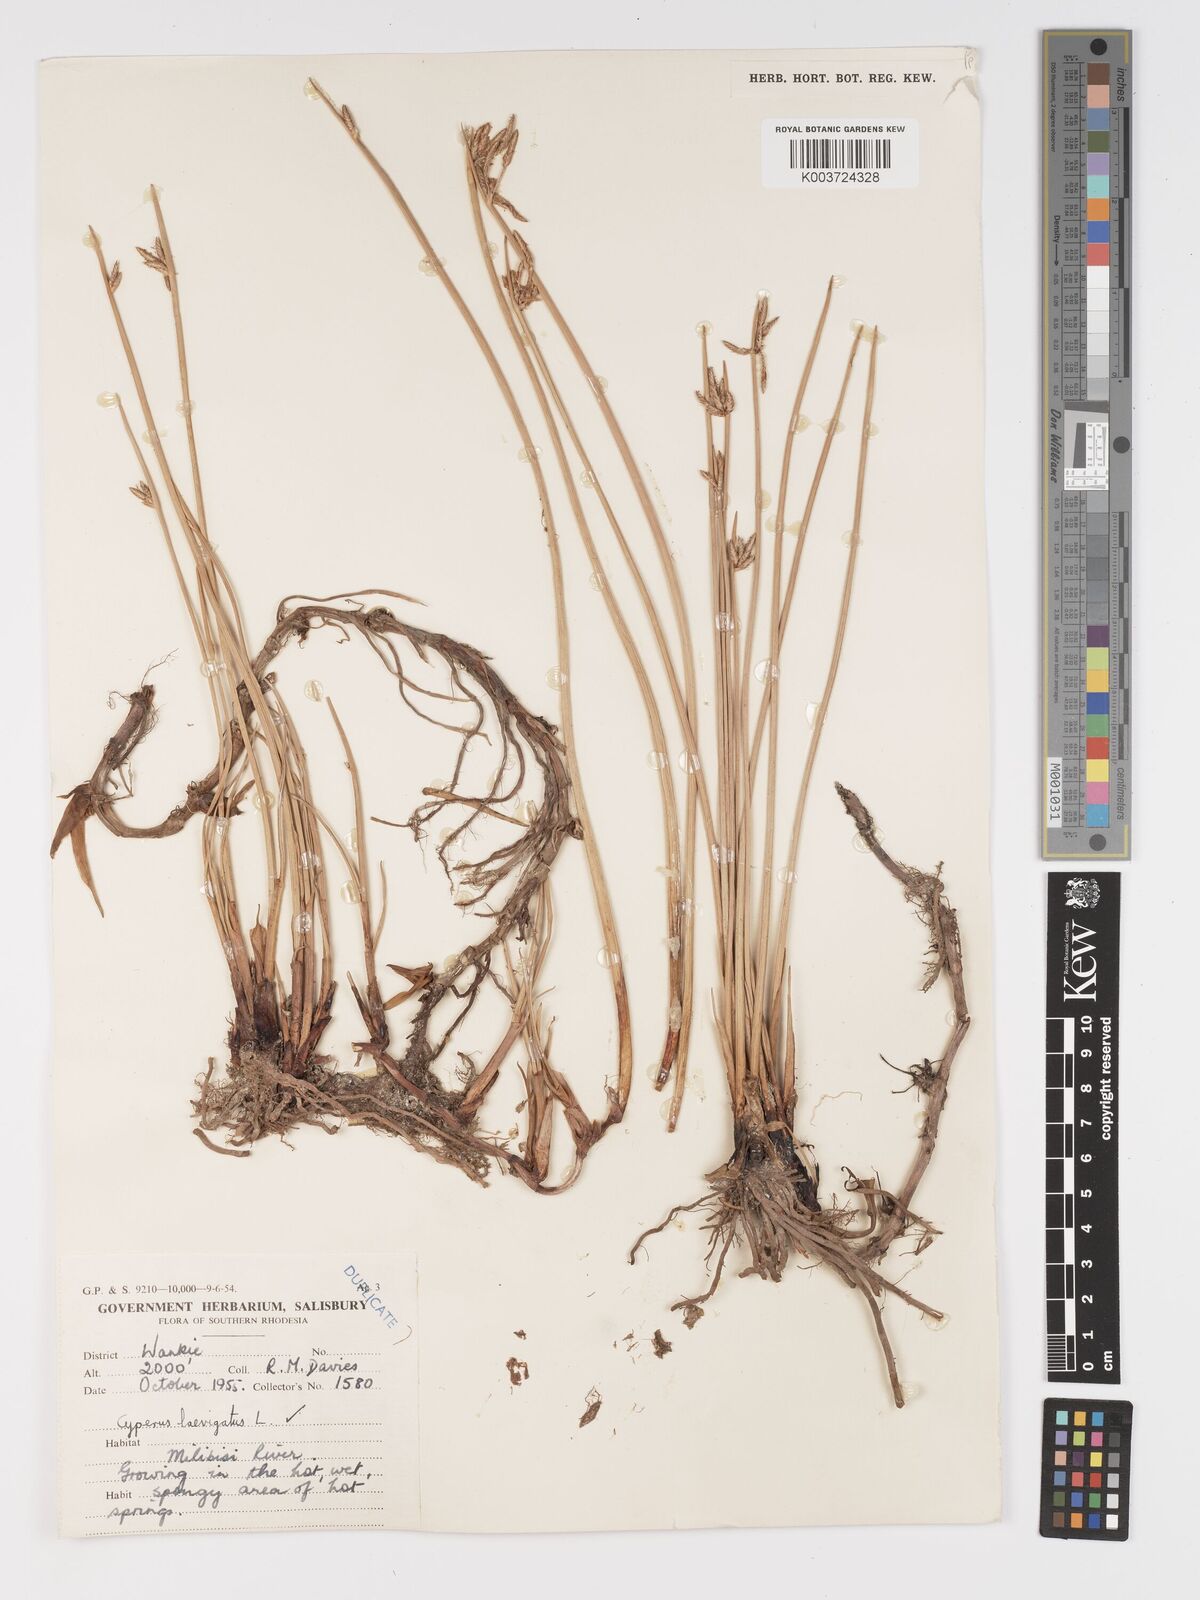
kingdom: Plantae
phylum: Tracheophyta
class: Liliopsida
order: Poales
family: Cyperaceae
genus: Cyperus
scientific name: Cyperus laevigatus
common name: Smooth flat sedge
